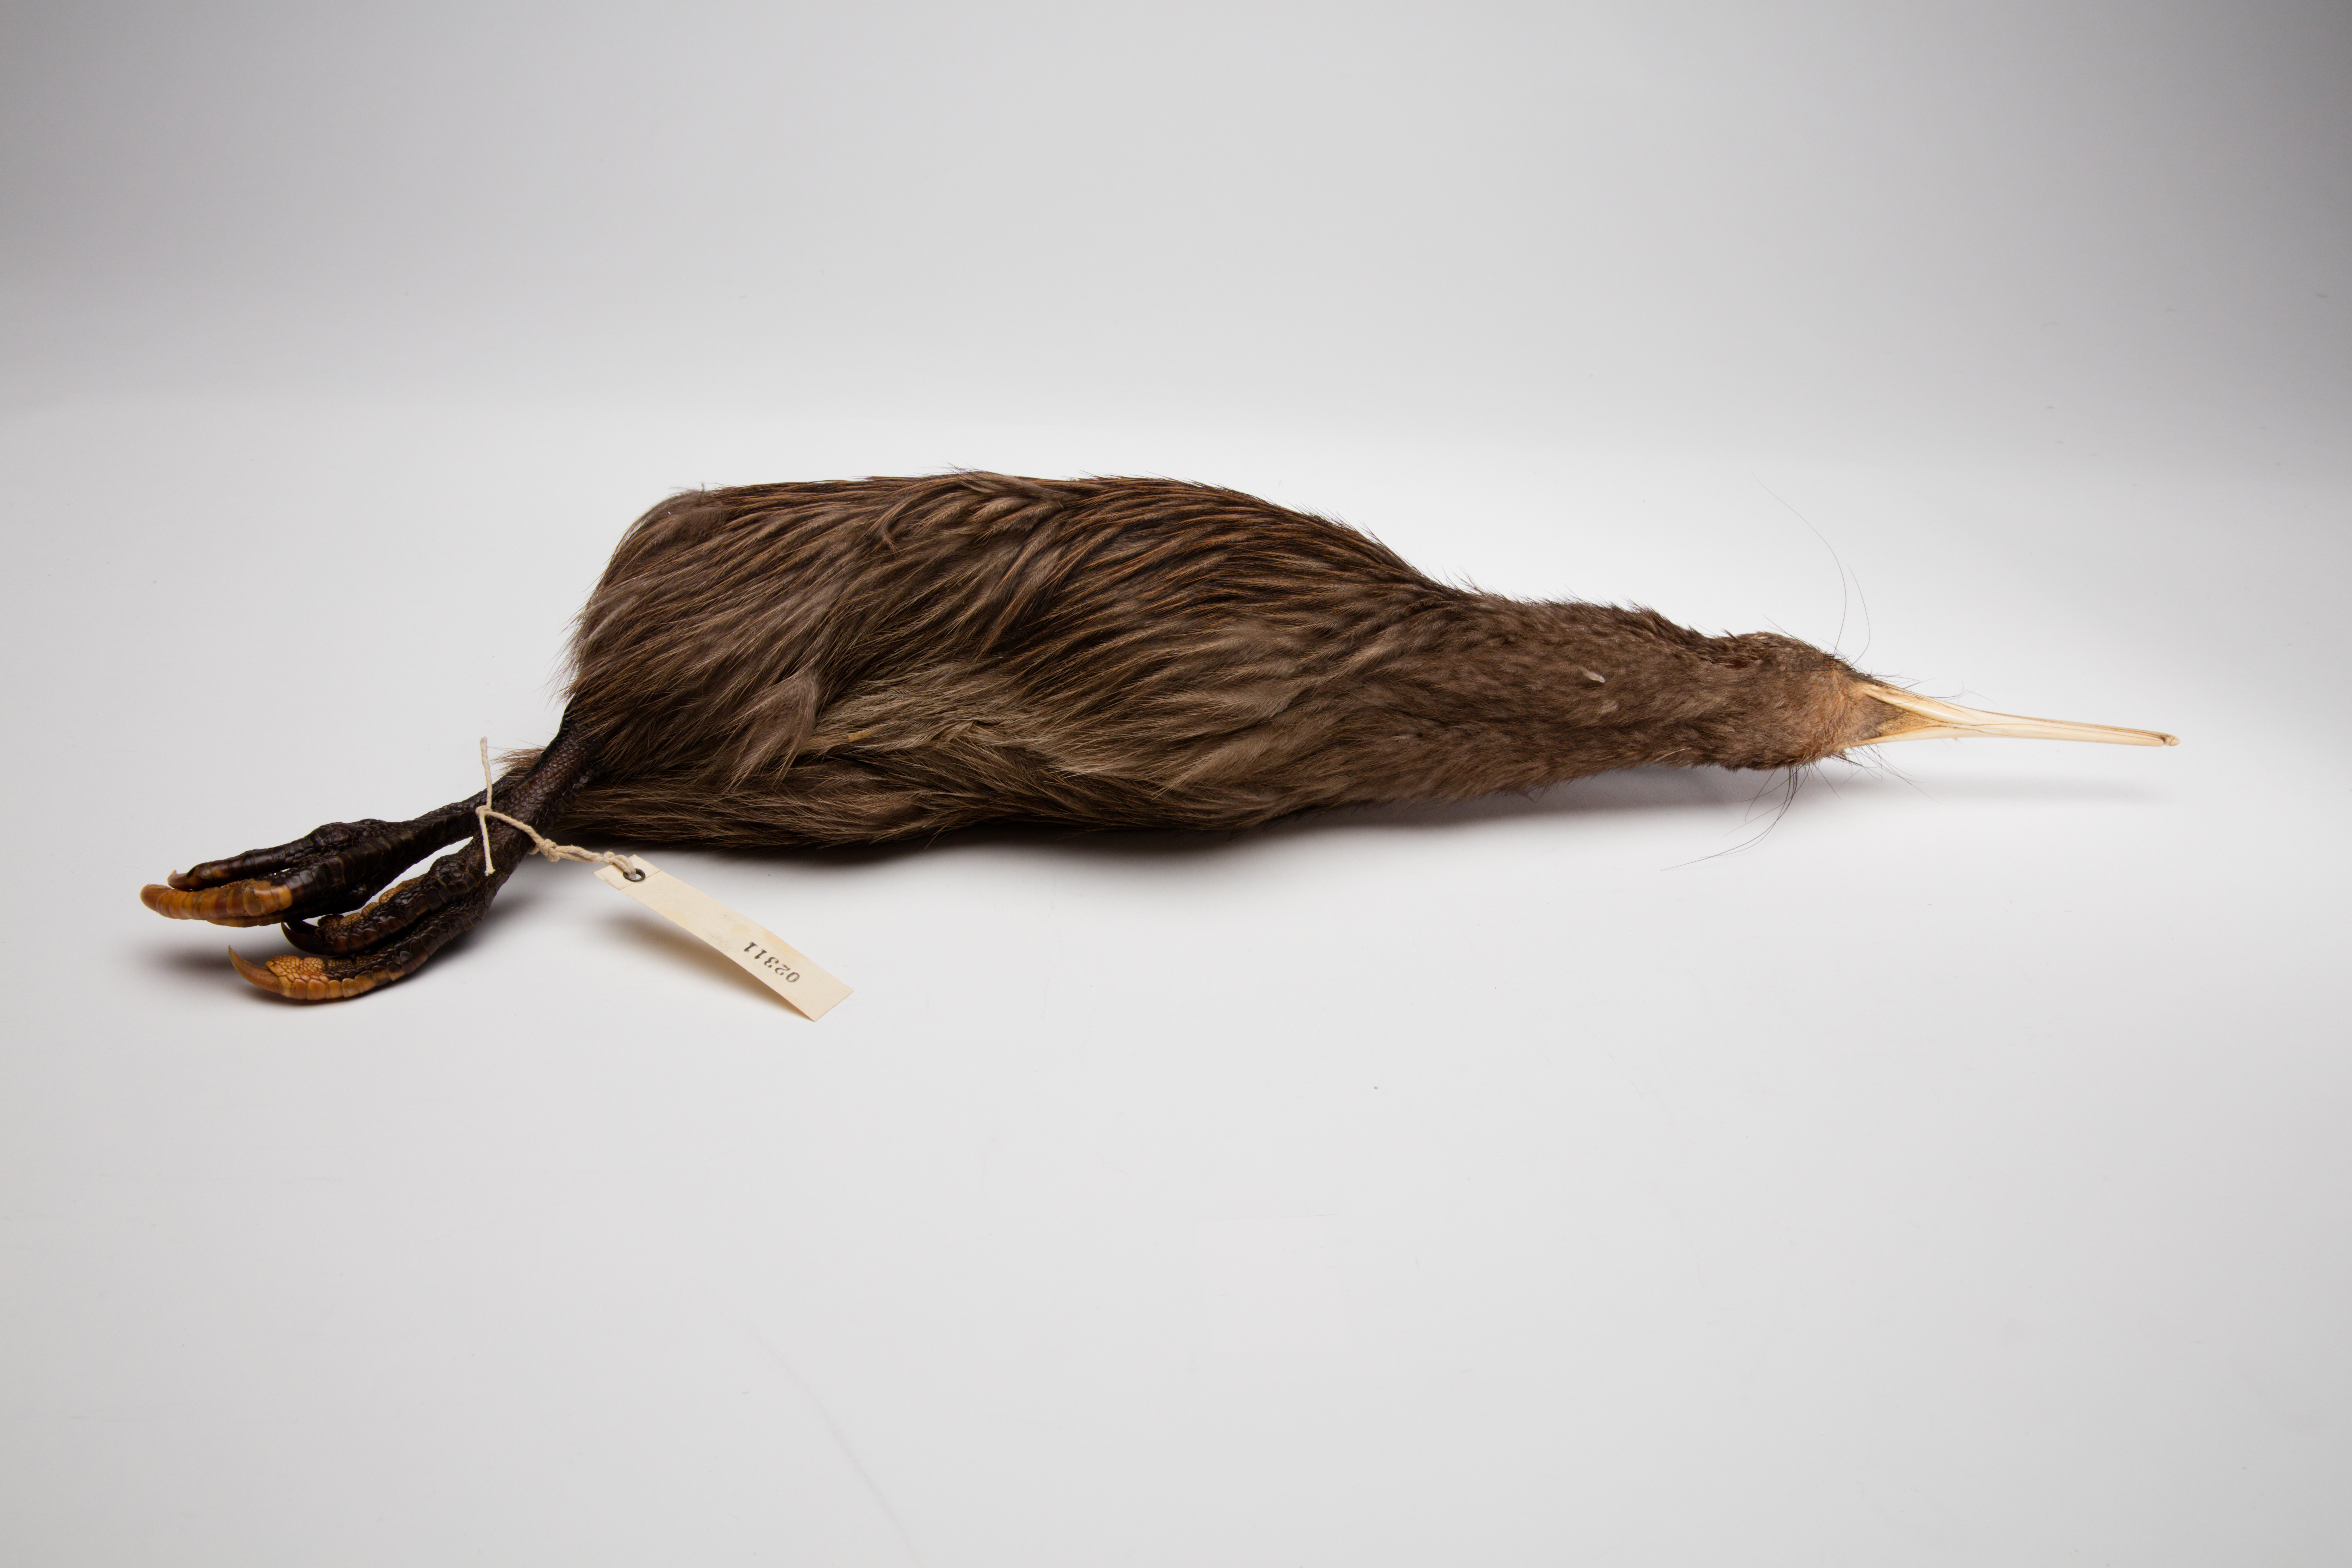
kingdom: Animalia
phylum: Chordata
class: Aves
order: Apterygiformes
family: Apterygidae
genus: Apteryx
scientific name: Apteryx mantelli
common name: North island brown kiwi
